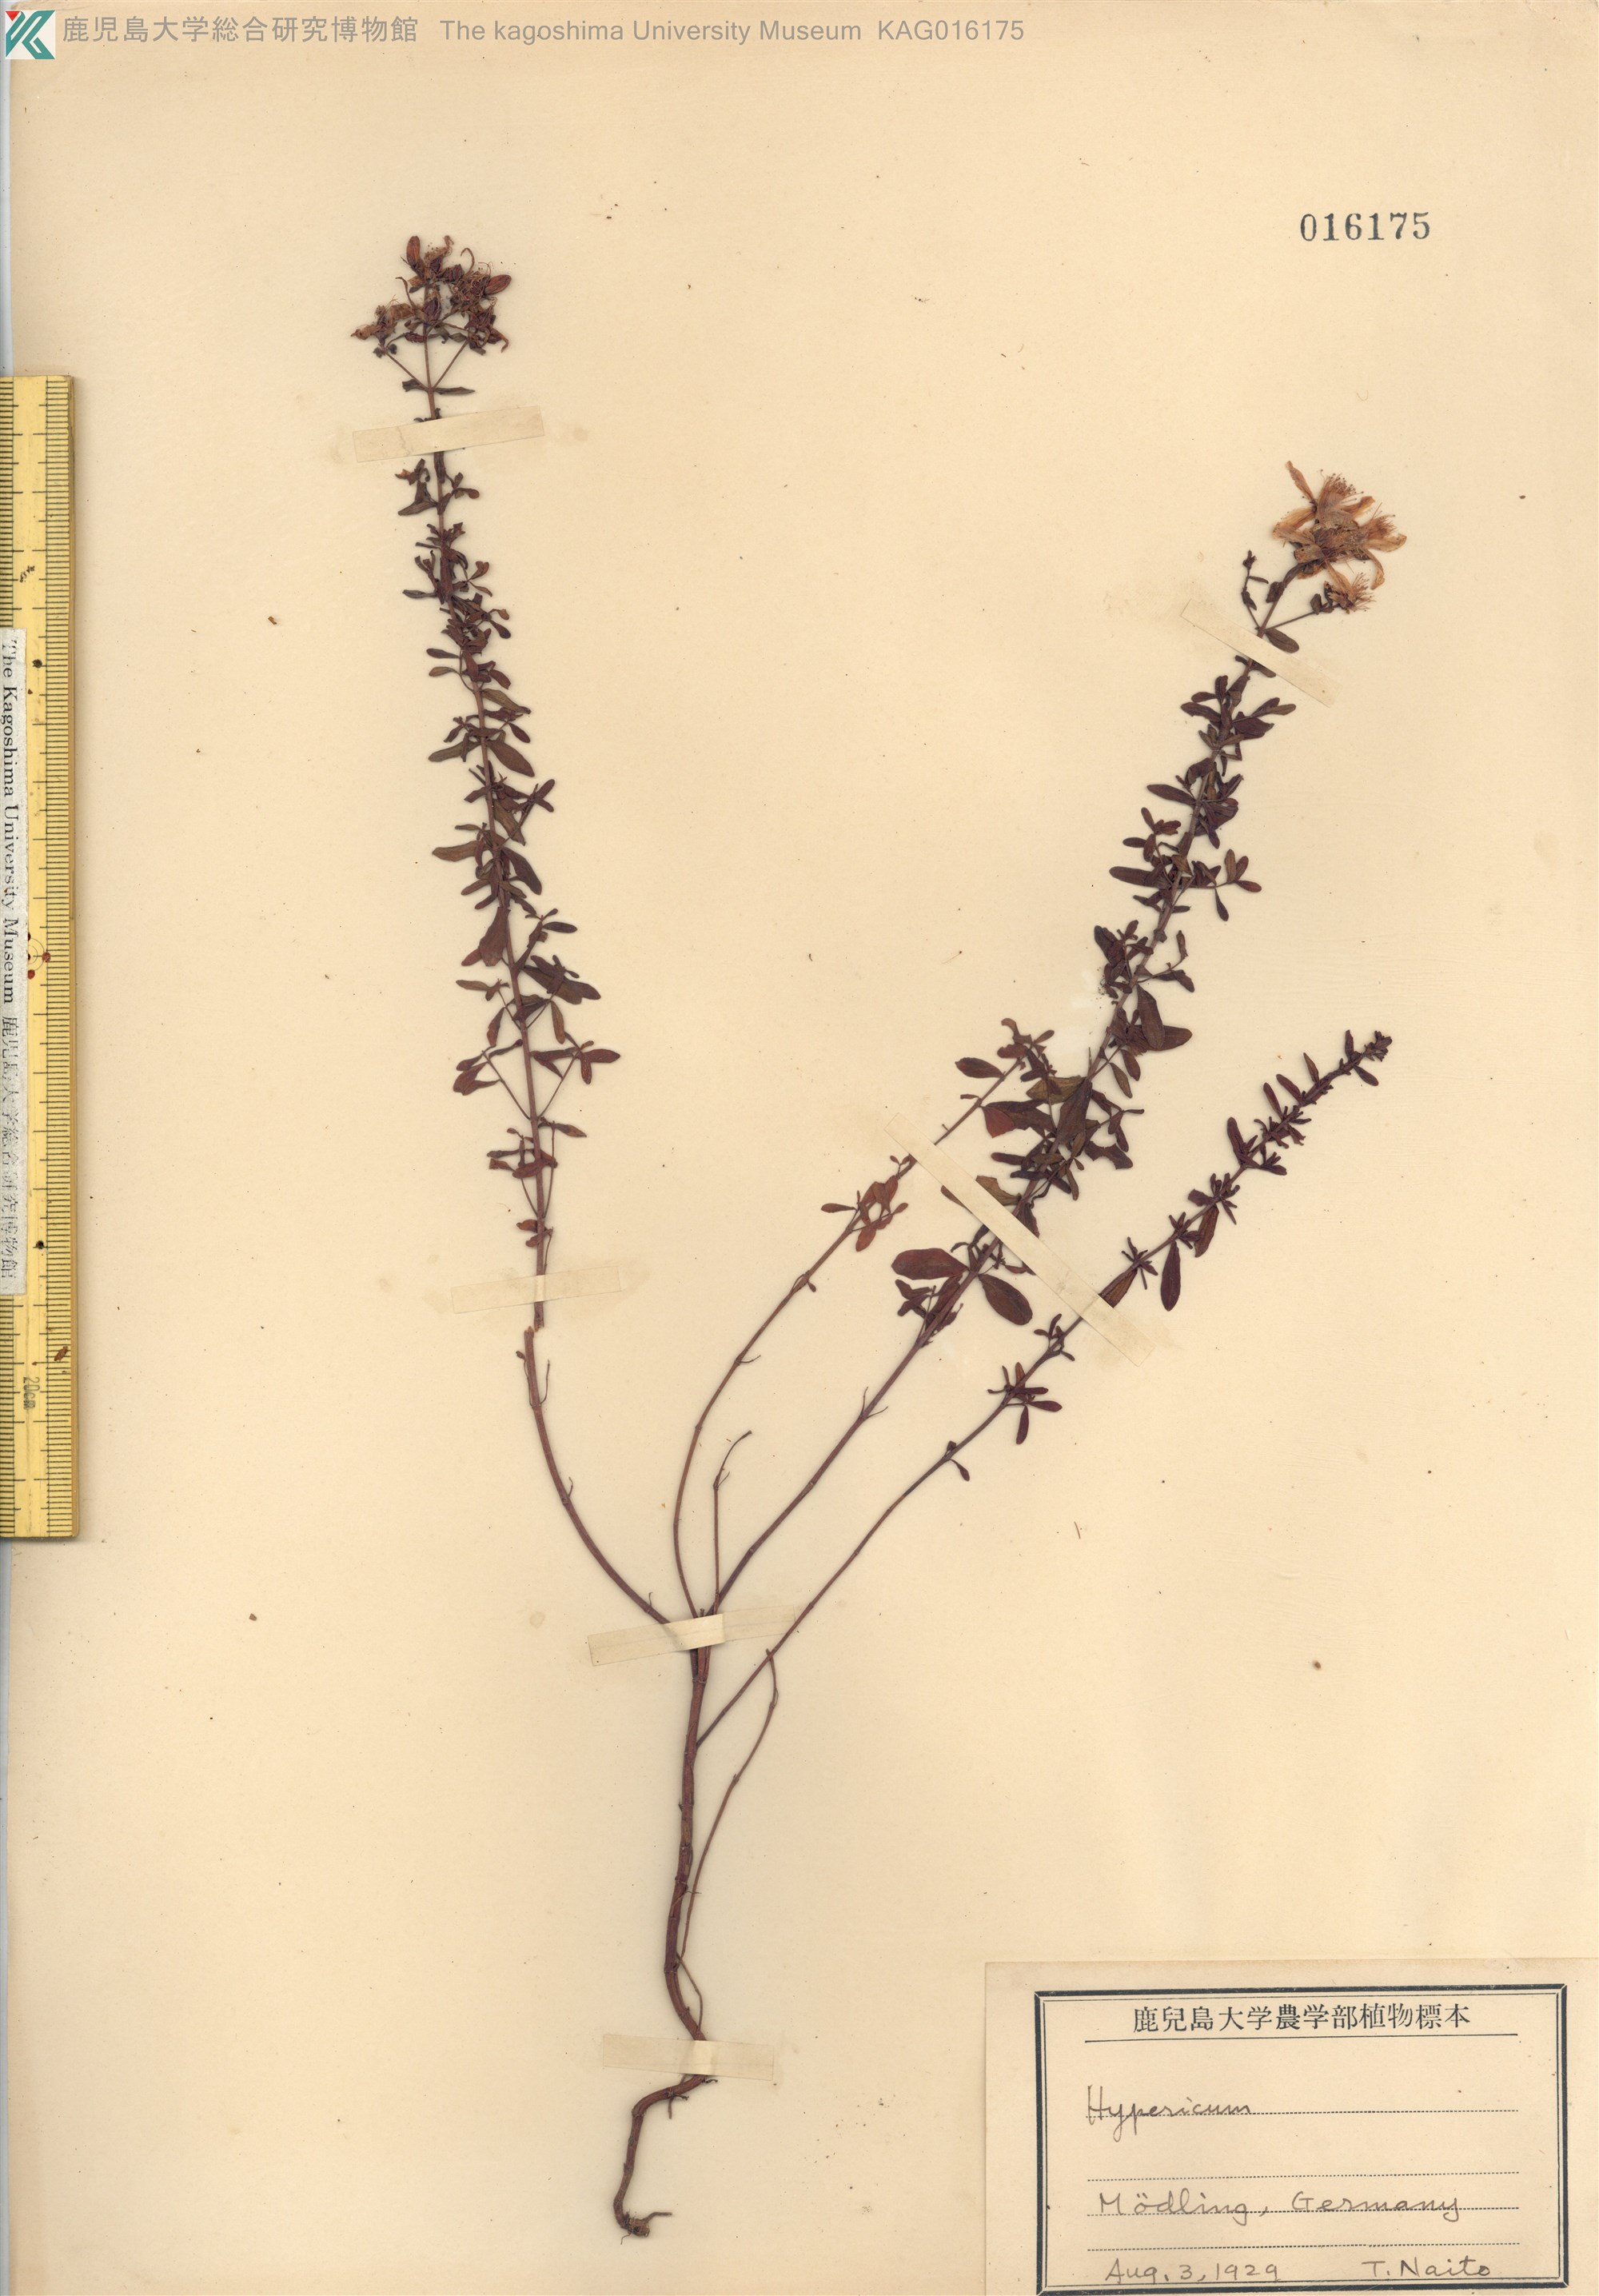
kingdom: Plantae
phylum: Tracheophyta
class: Magnoliopsida
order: Malpighiales
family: Hypericaceae
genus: Hypericum
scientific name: Hypericum
